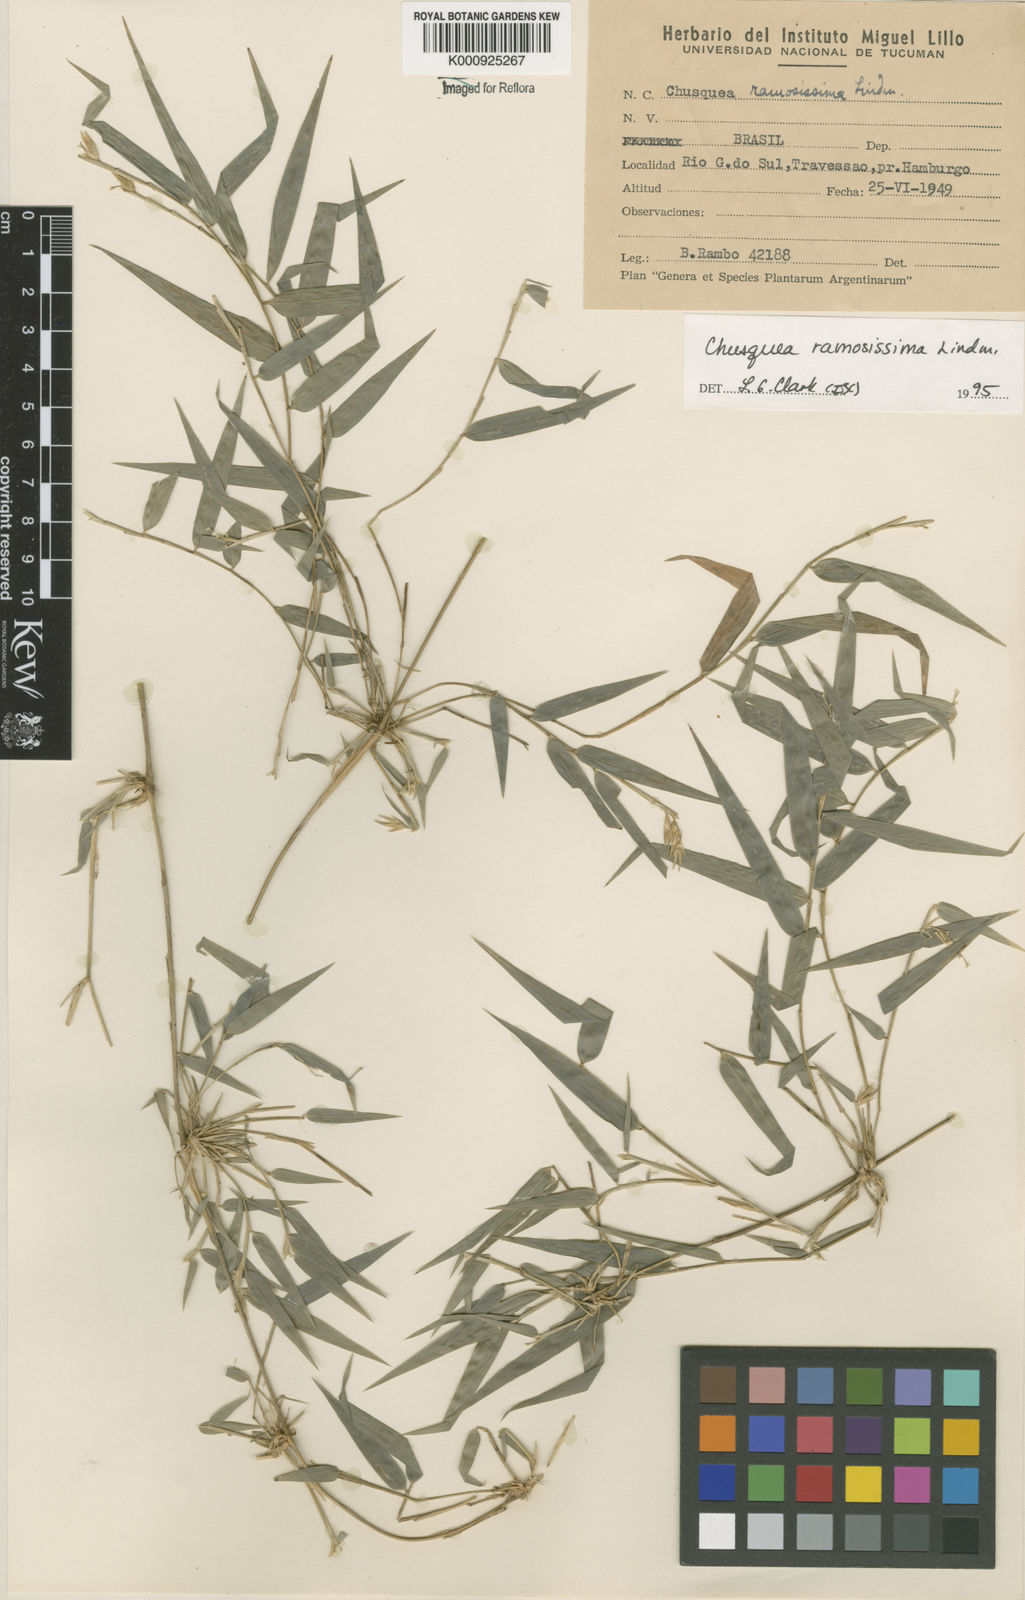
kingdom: Plantae
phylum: Tracheophyta
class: Liliopsida
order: Poales
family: Poaceae
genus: Chusquea
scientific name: Chusquea ramosissima
